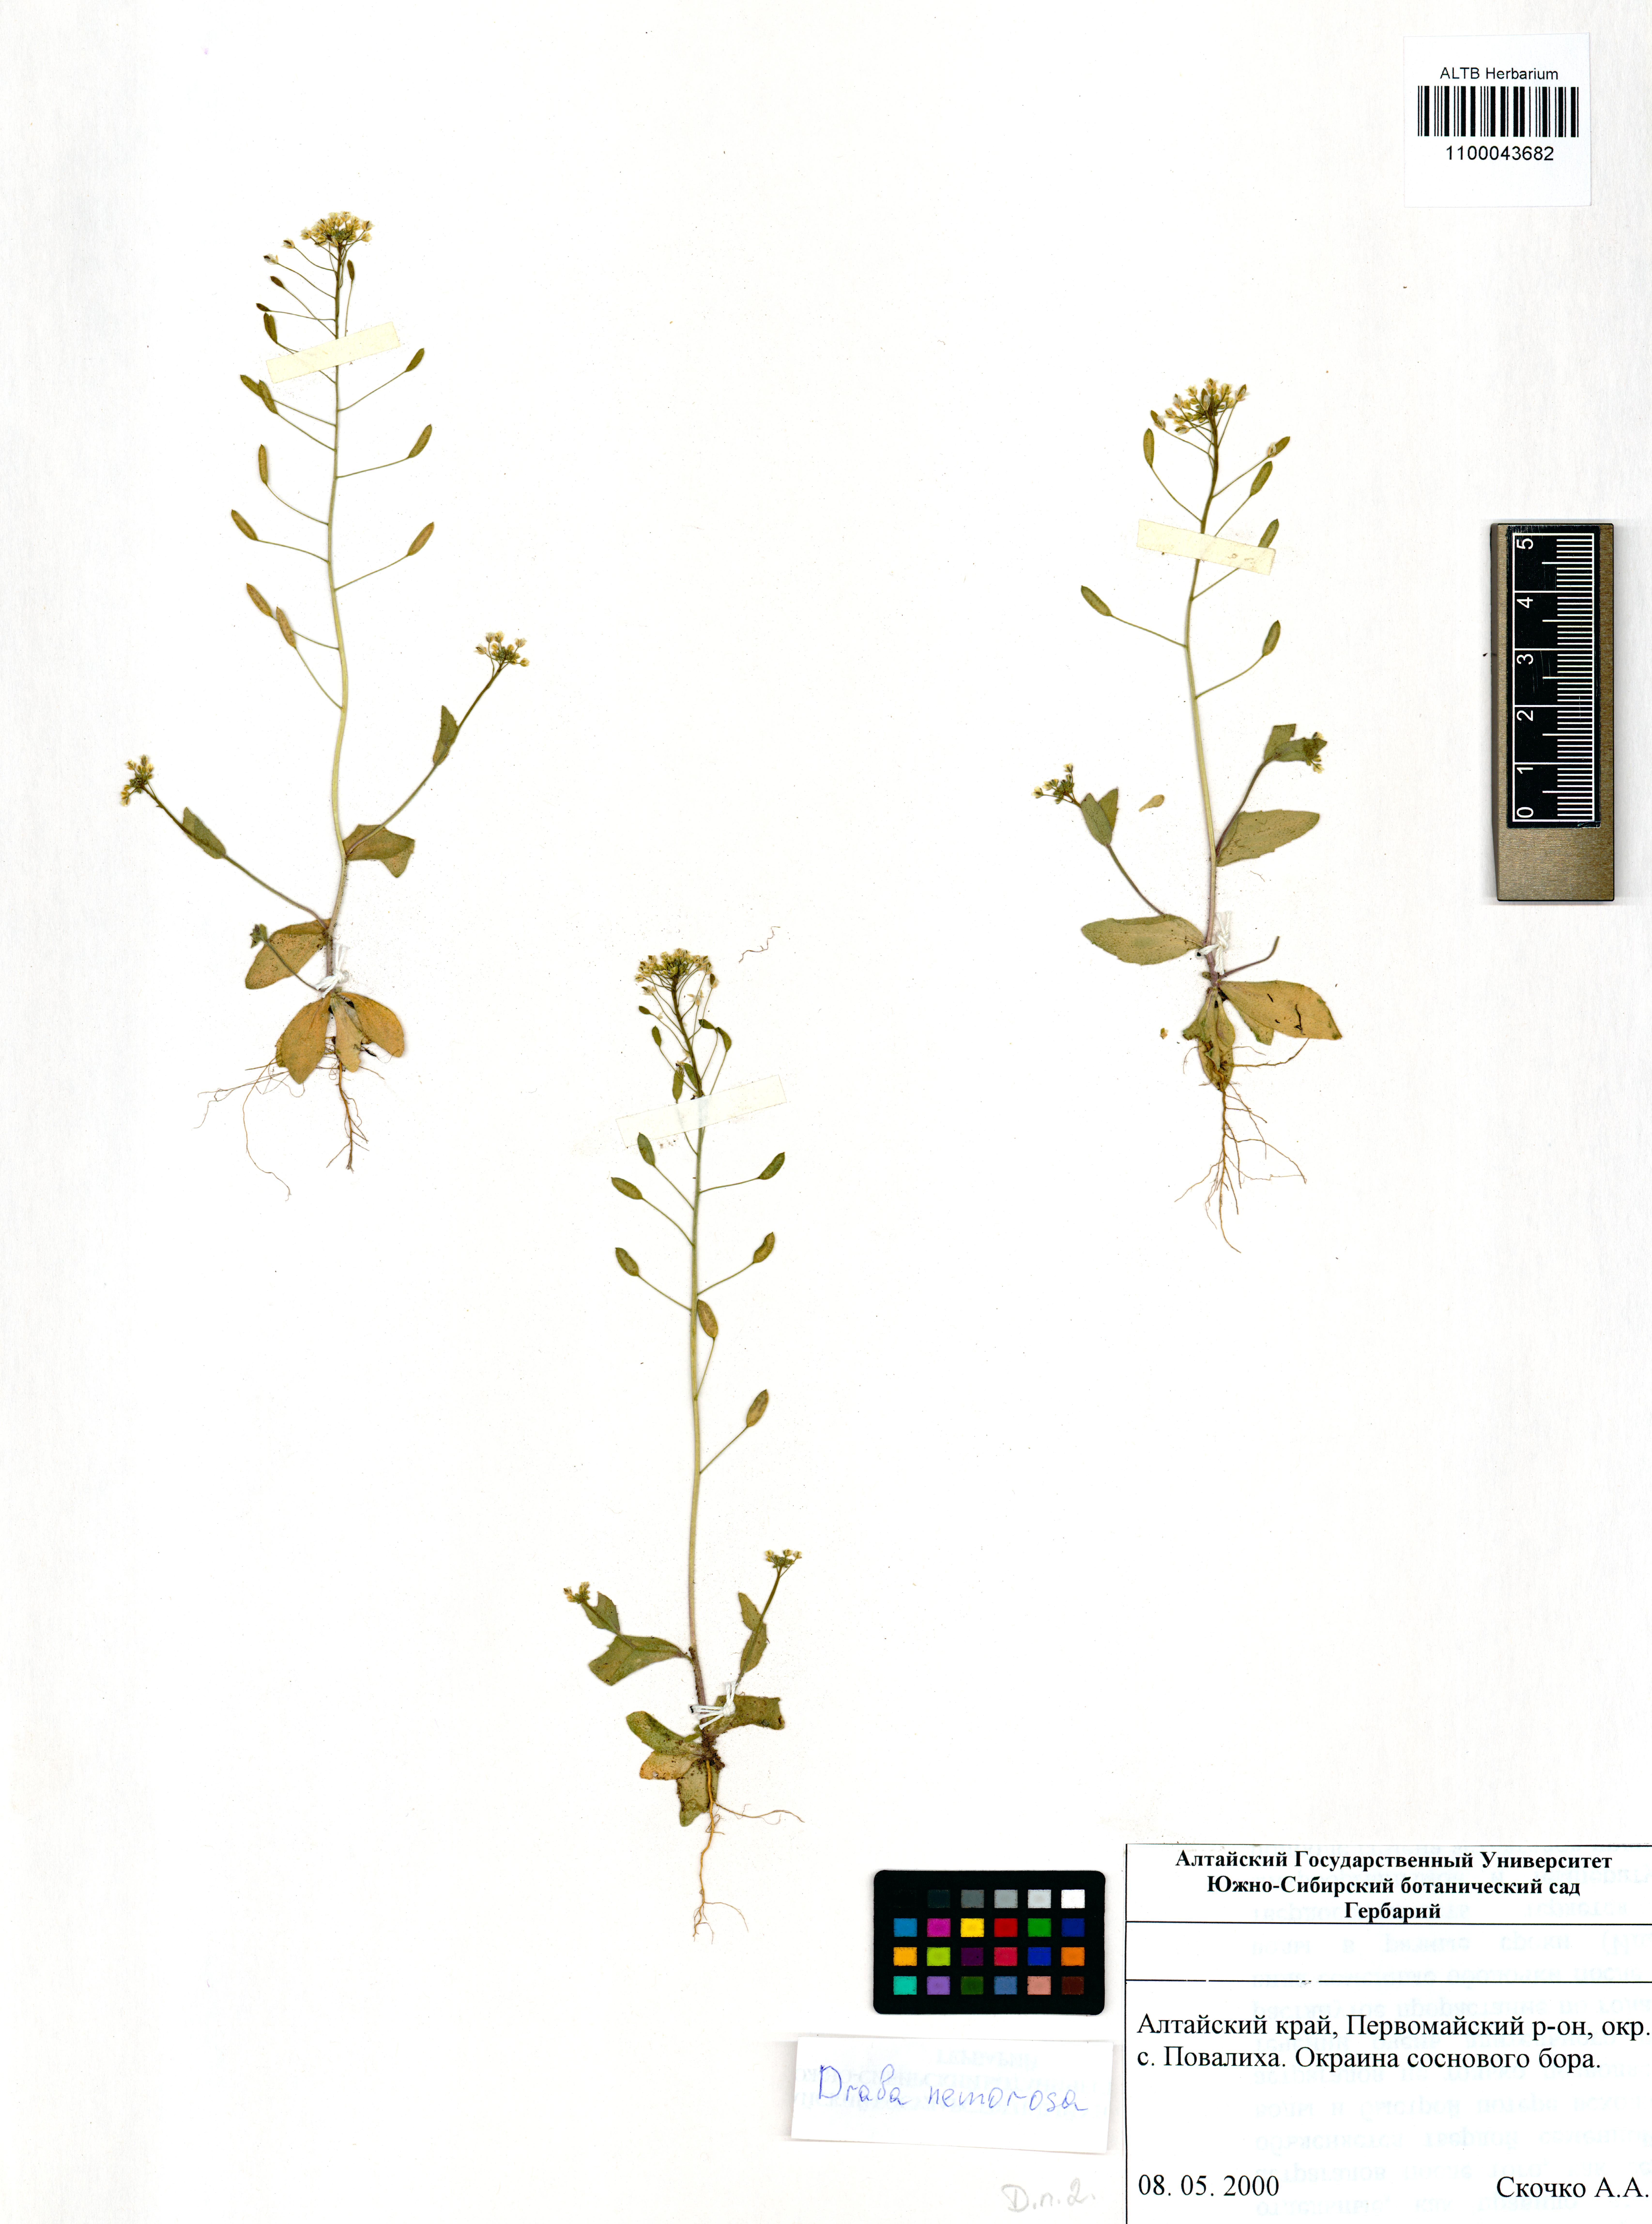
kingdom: Plantae
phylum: Tracheophyta
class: Magnoliopsida
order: Brassicales
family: Brassicaceae
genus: Draba
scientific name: Draba nemorosa
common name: Wood whitlow-grass
